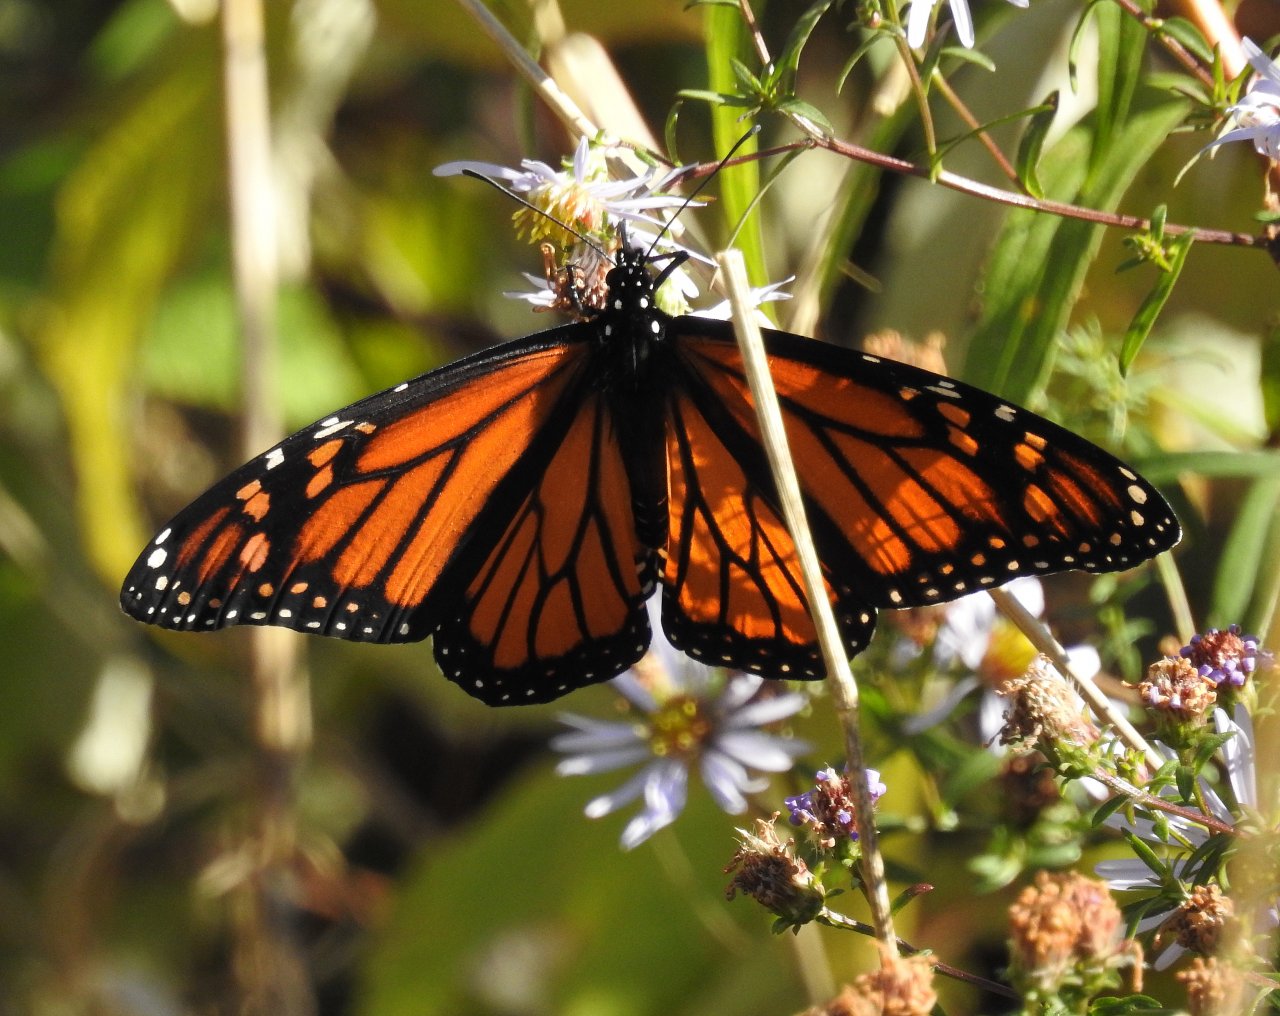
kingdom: Animalia
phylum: Arthropoda
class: Insecta
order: Lepidoptera
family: Nymphalidae
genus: Danaus
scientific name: Danaus plexippus
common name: Monarch
